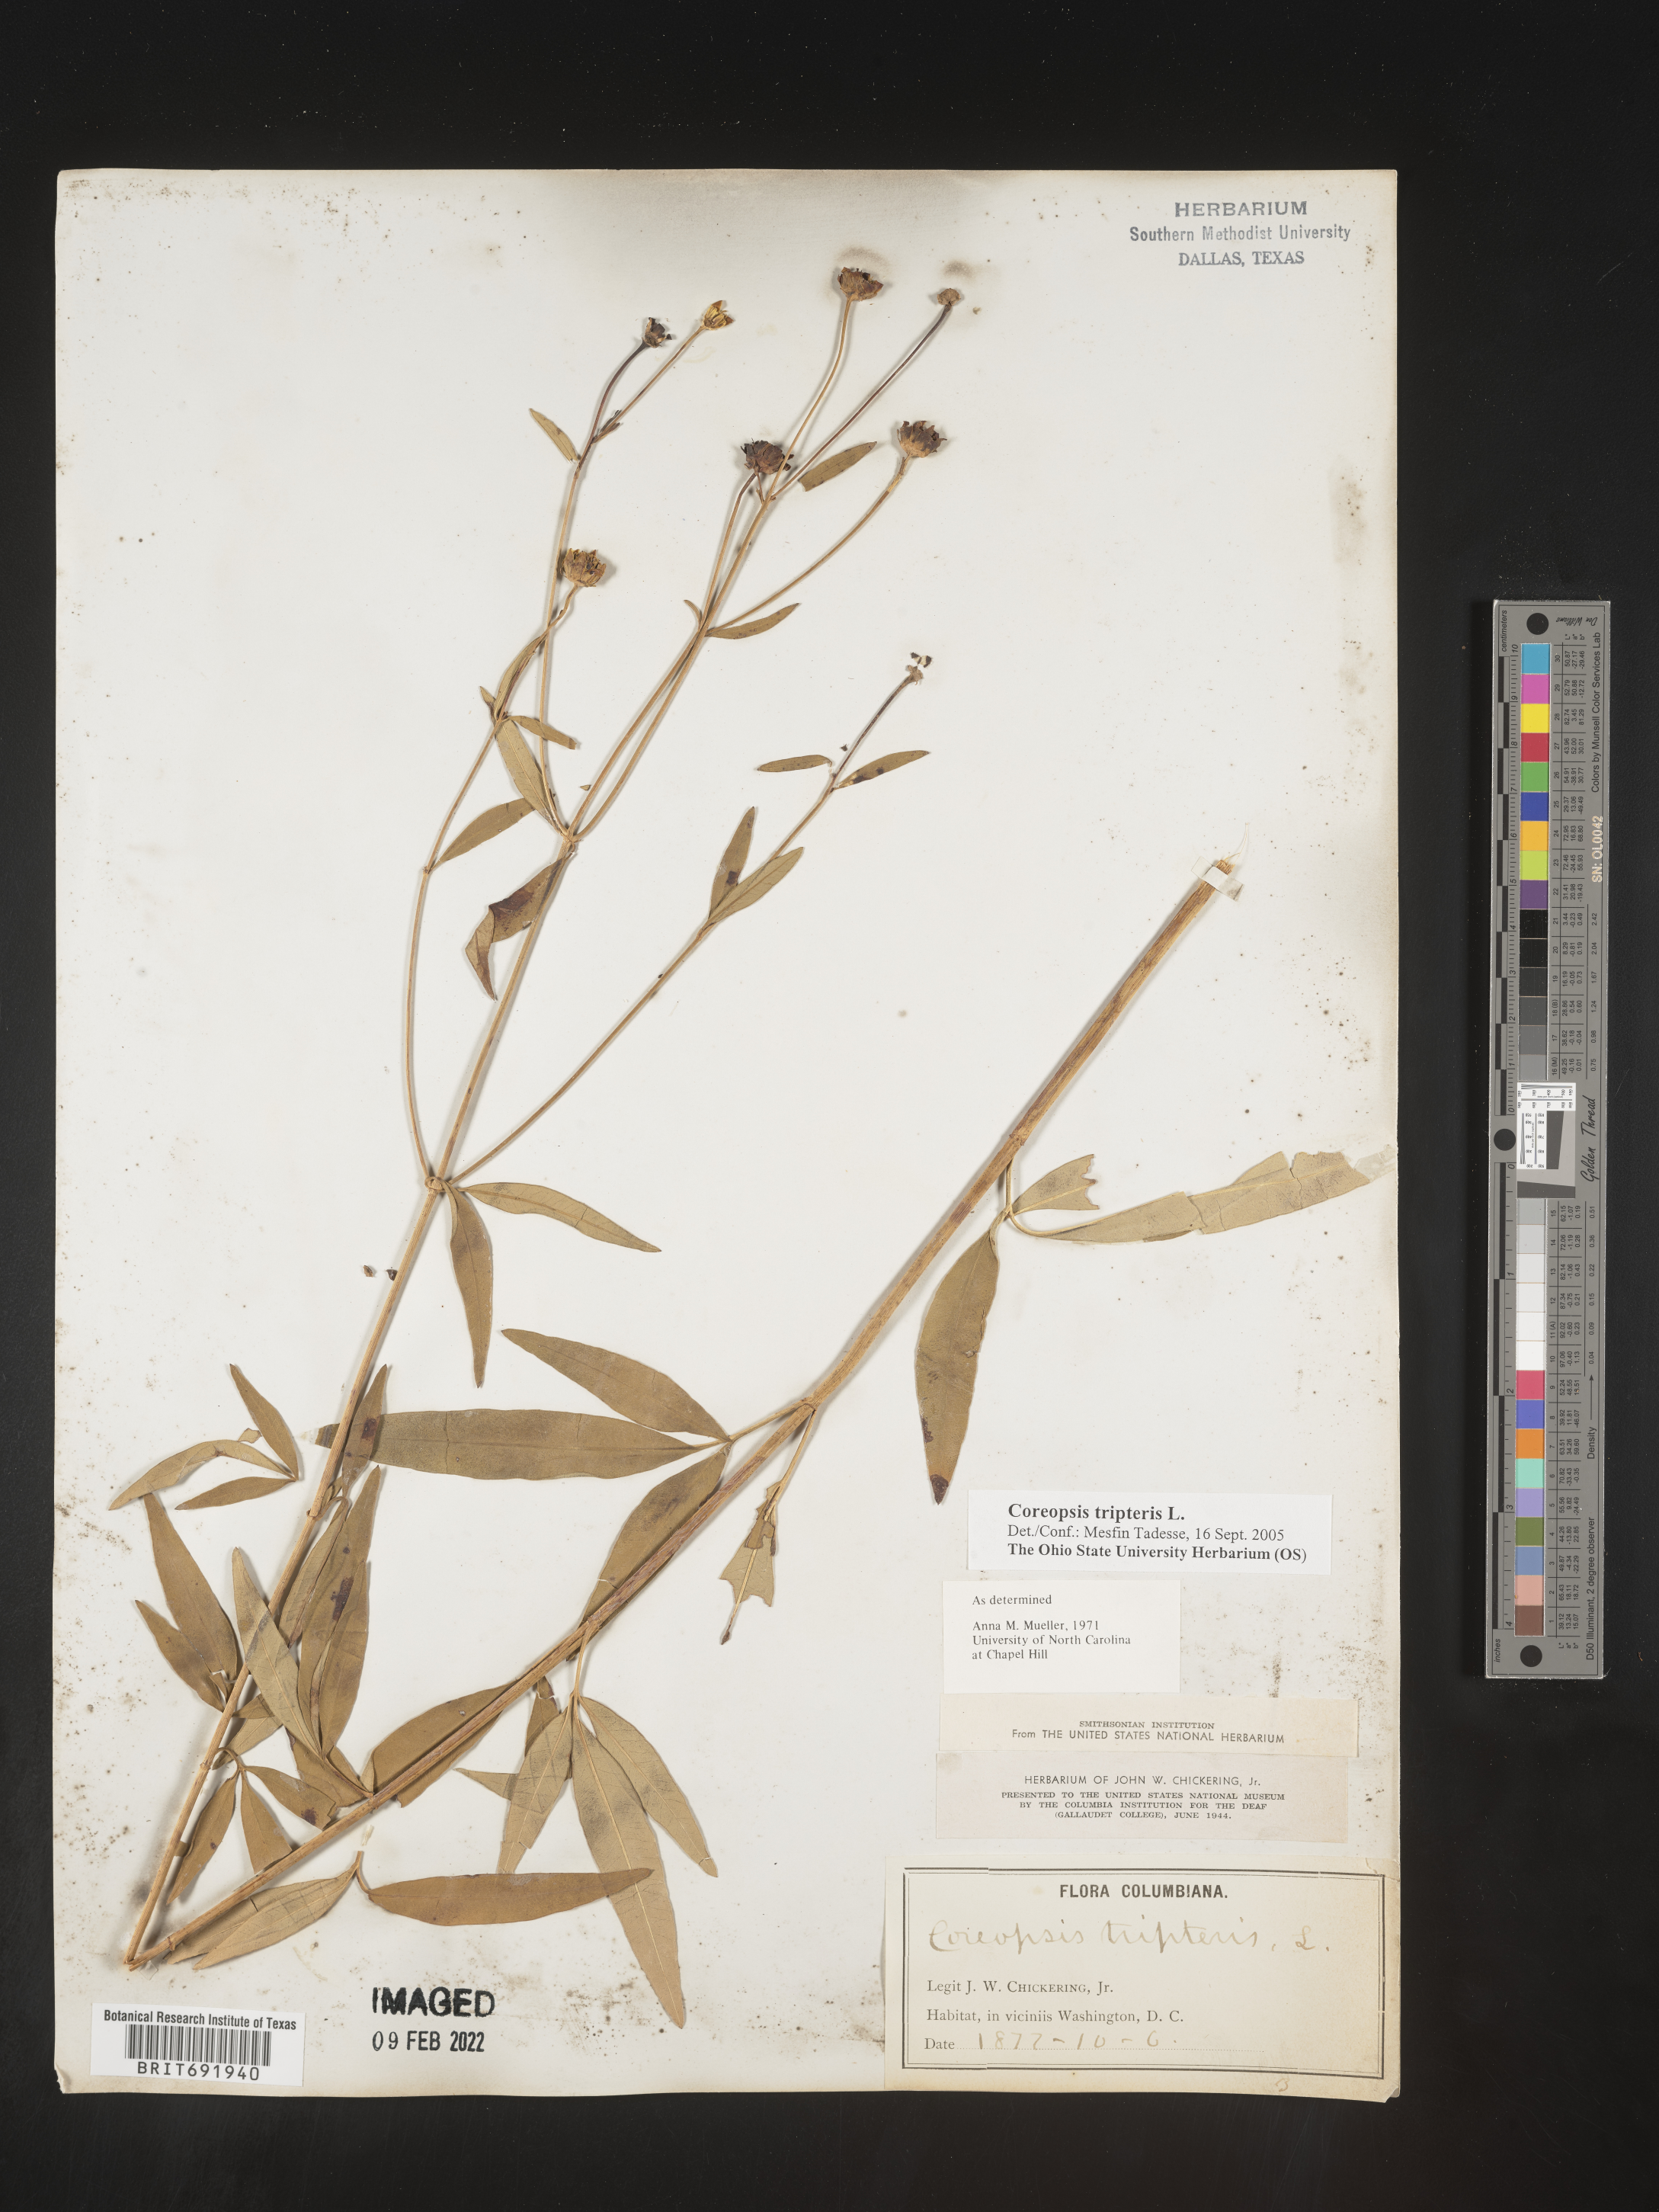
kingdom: Plantae
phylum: Tracheophyta
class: Magnoliopsida
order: Asterales
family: Asteraceae
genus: Coreopsis
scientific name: Coreopsis
